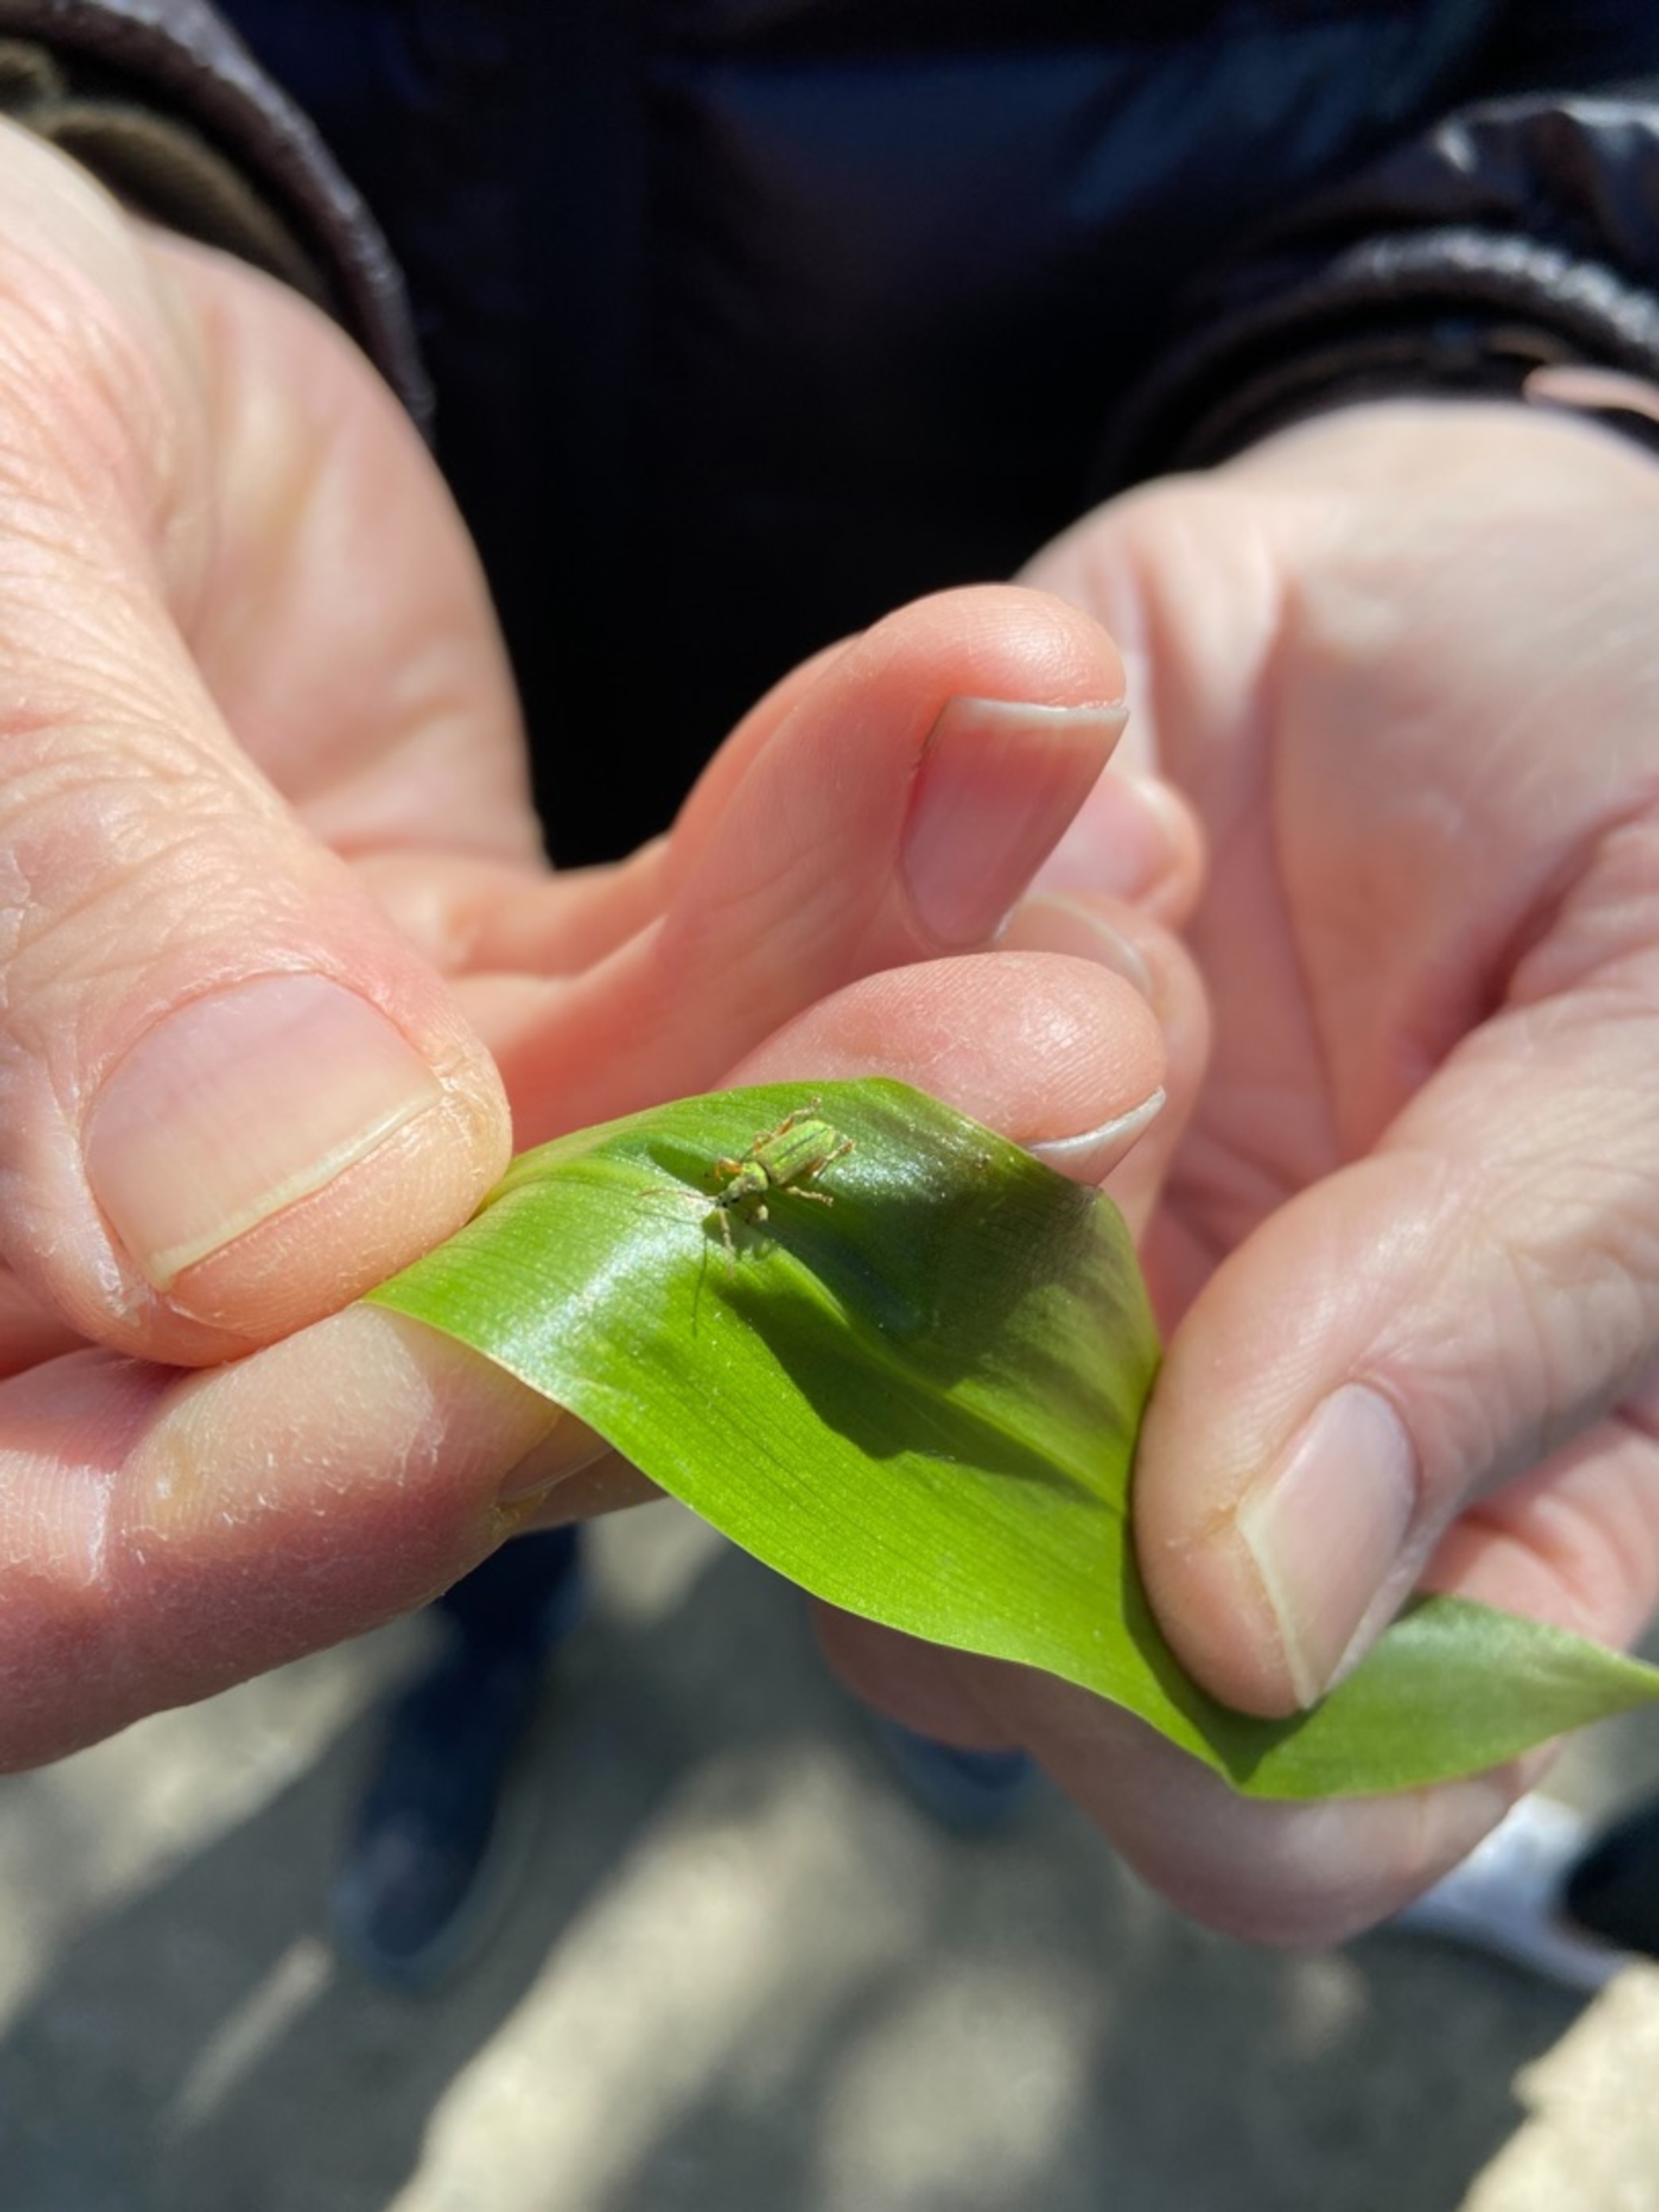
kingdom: Animalia
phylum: Arthropoda
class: Insecta
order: Coleoptera
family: Curculionidae
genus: Phyllobius
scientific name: Phyllobius argentatus
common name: Bøgeløvsnudebille
